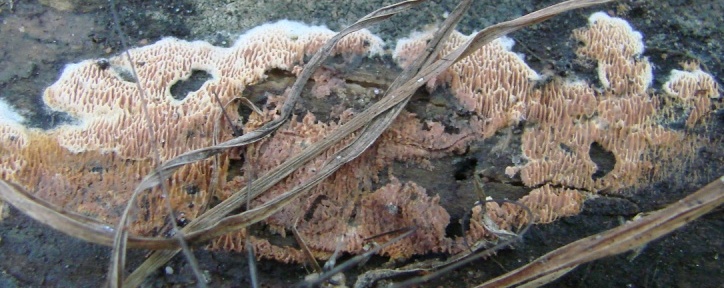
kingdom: Fungi
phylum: Basidiomycota
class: Agaricomycetes
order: Polyporales
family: Irpicaceae
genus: Ceriporia
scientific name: Ceriporia purpurea
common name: purpur-voksporesvamp
